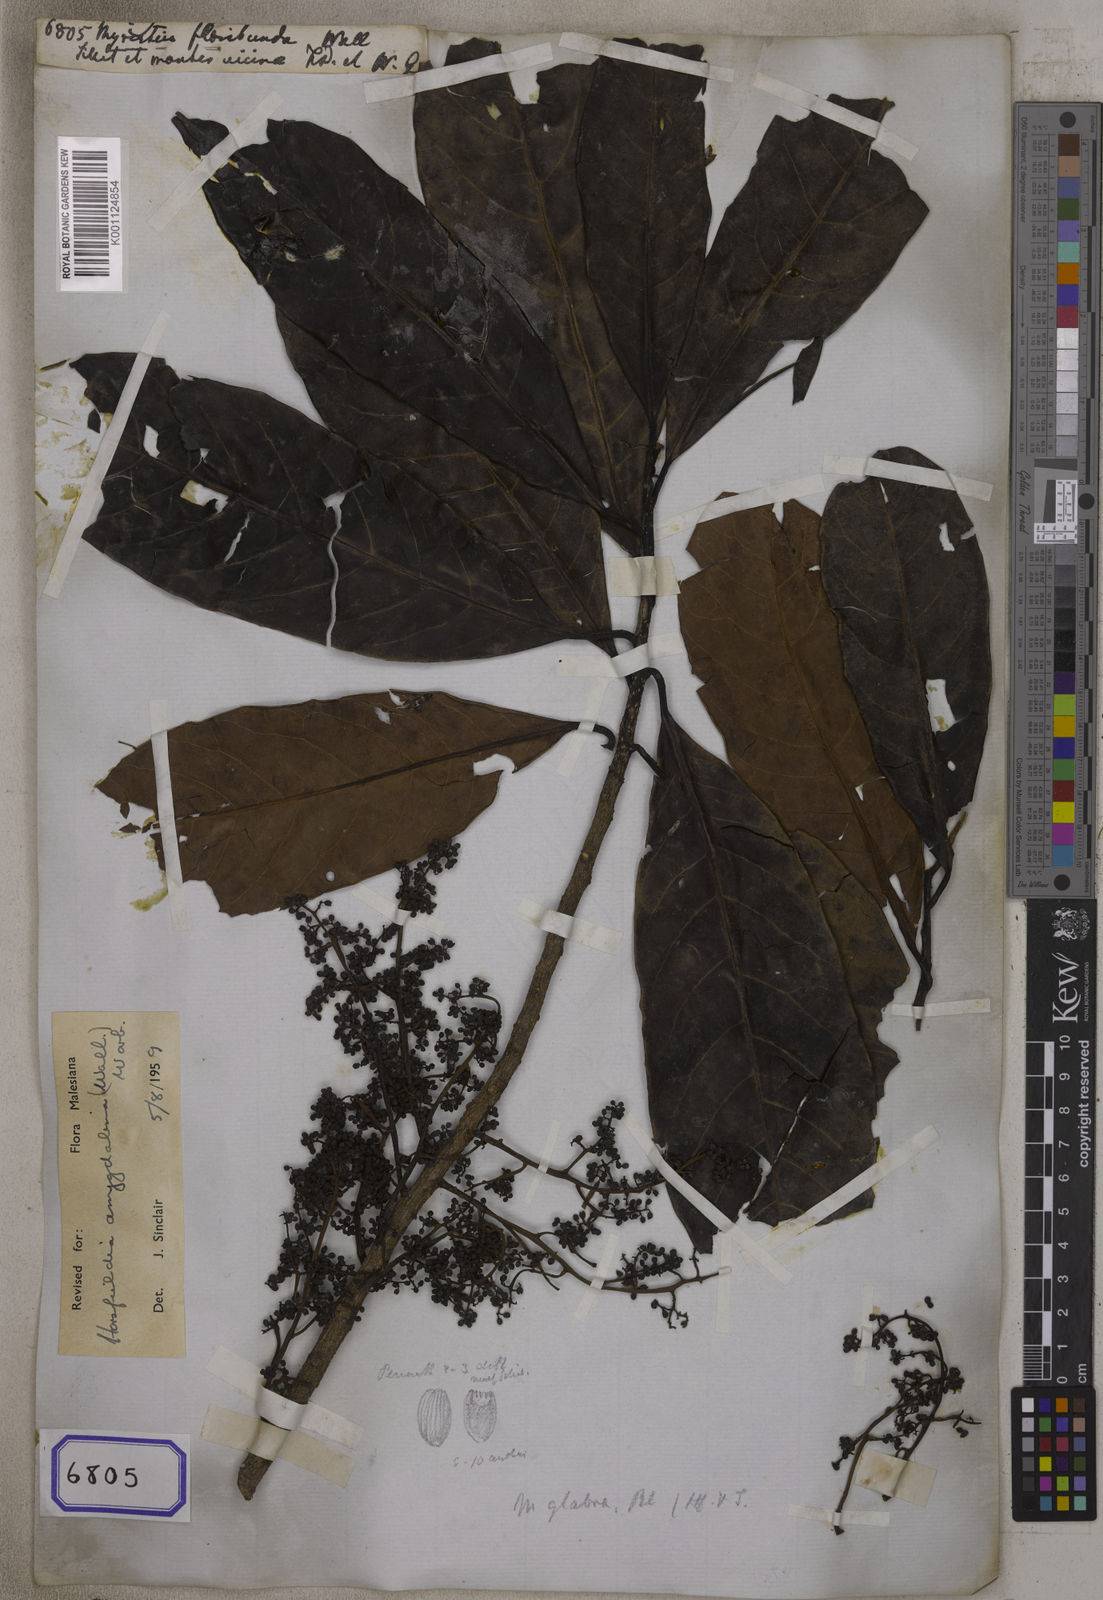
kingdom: Plantae
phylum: Tracheophyta
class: Magnoliopsida
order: Magnoliales
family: Myristicaceae
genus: Horsfieldia
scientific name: Horsfieldia amygdalina
